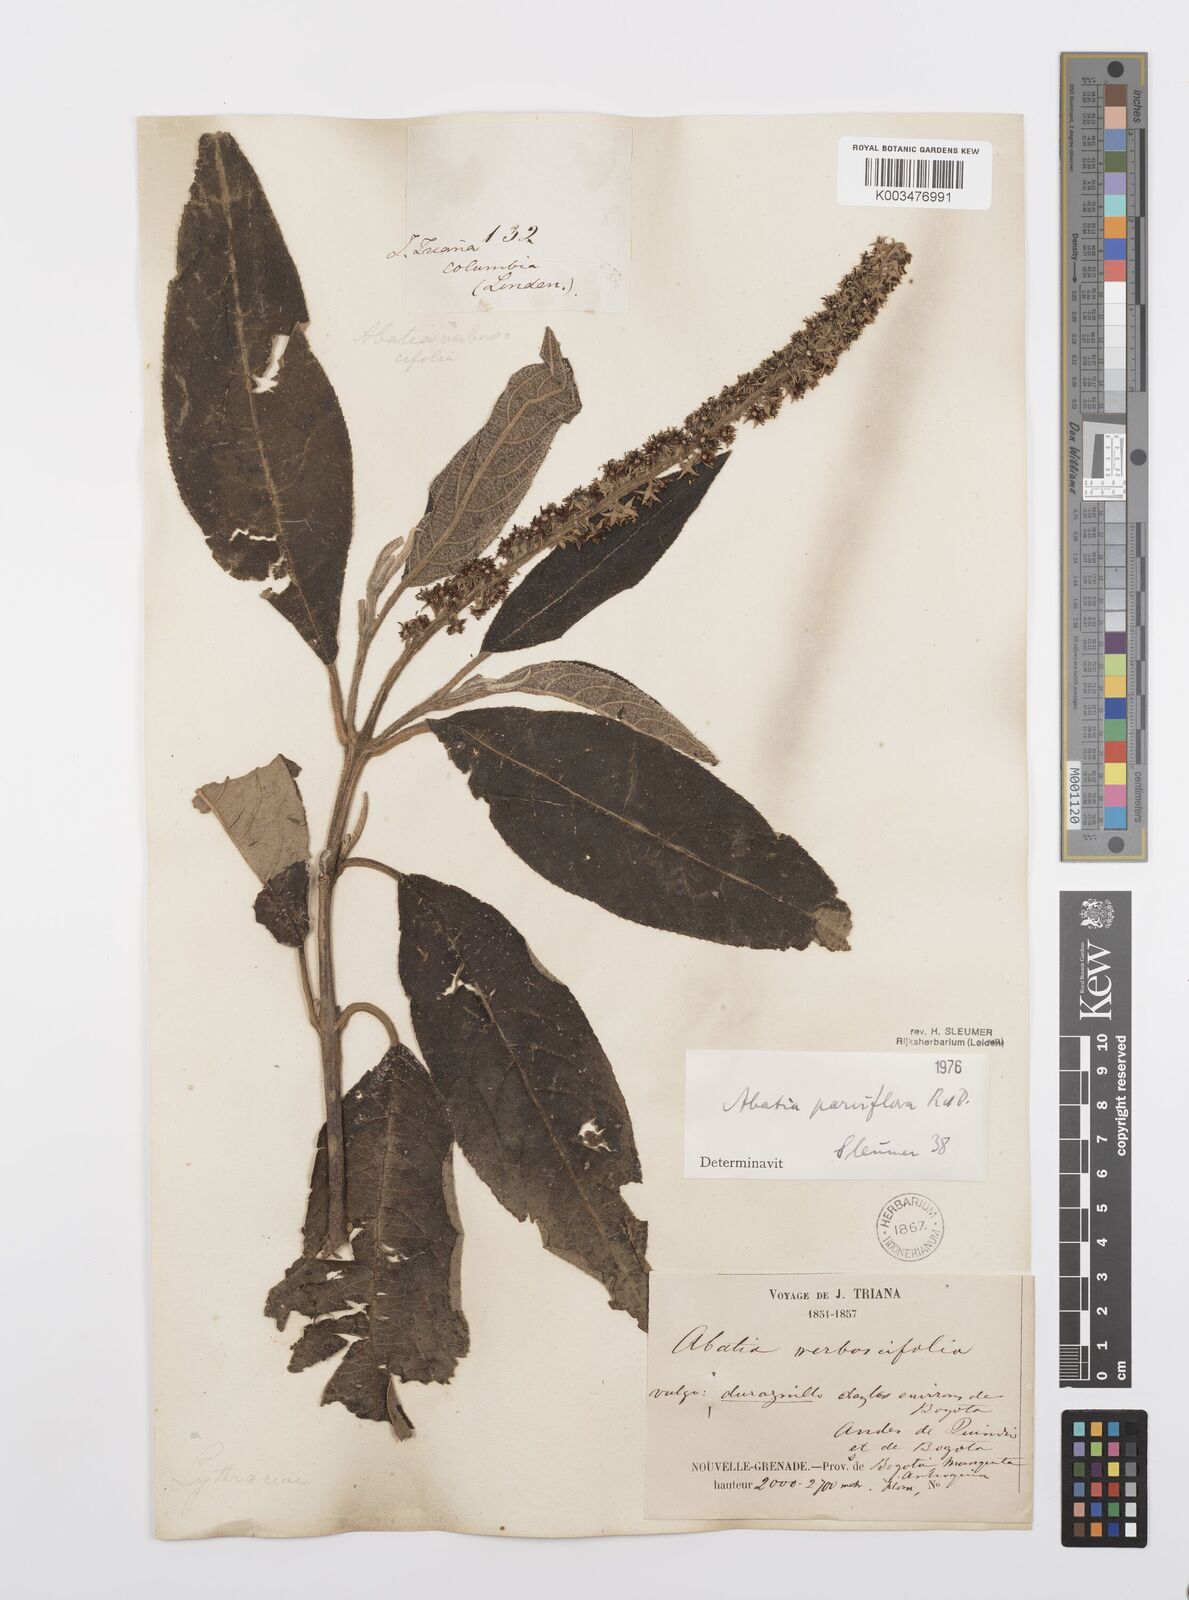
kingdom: Plantae
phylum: Tracheophyta
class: Magnoliopsida
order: Malpighiales
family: Salicaceae
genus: Abatia
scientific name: Abatia parviflora
